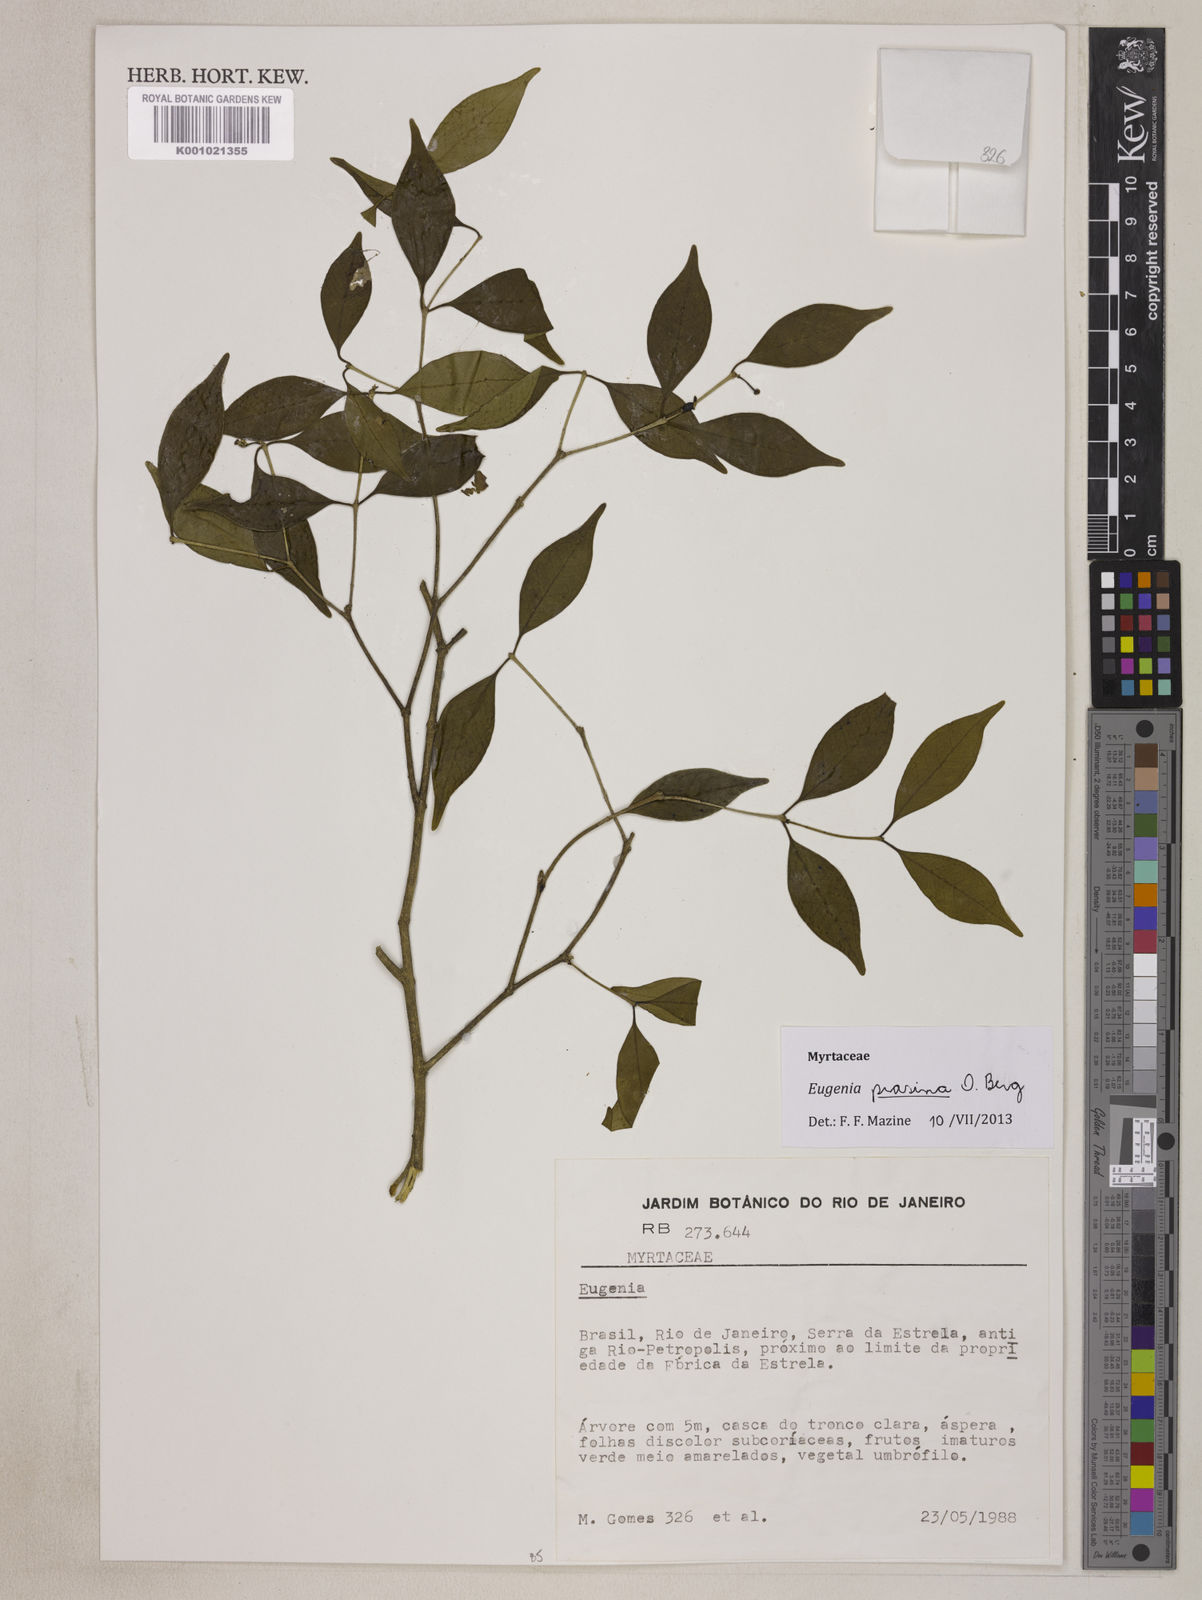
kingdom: Plantae
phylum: Tracheophyta
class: Magnoliopsida
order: Myrtales
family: Myrtaceae
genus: Eugenia
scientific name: Eugenia prasina
